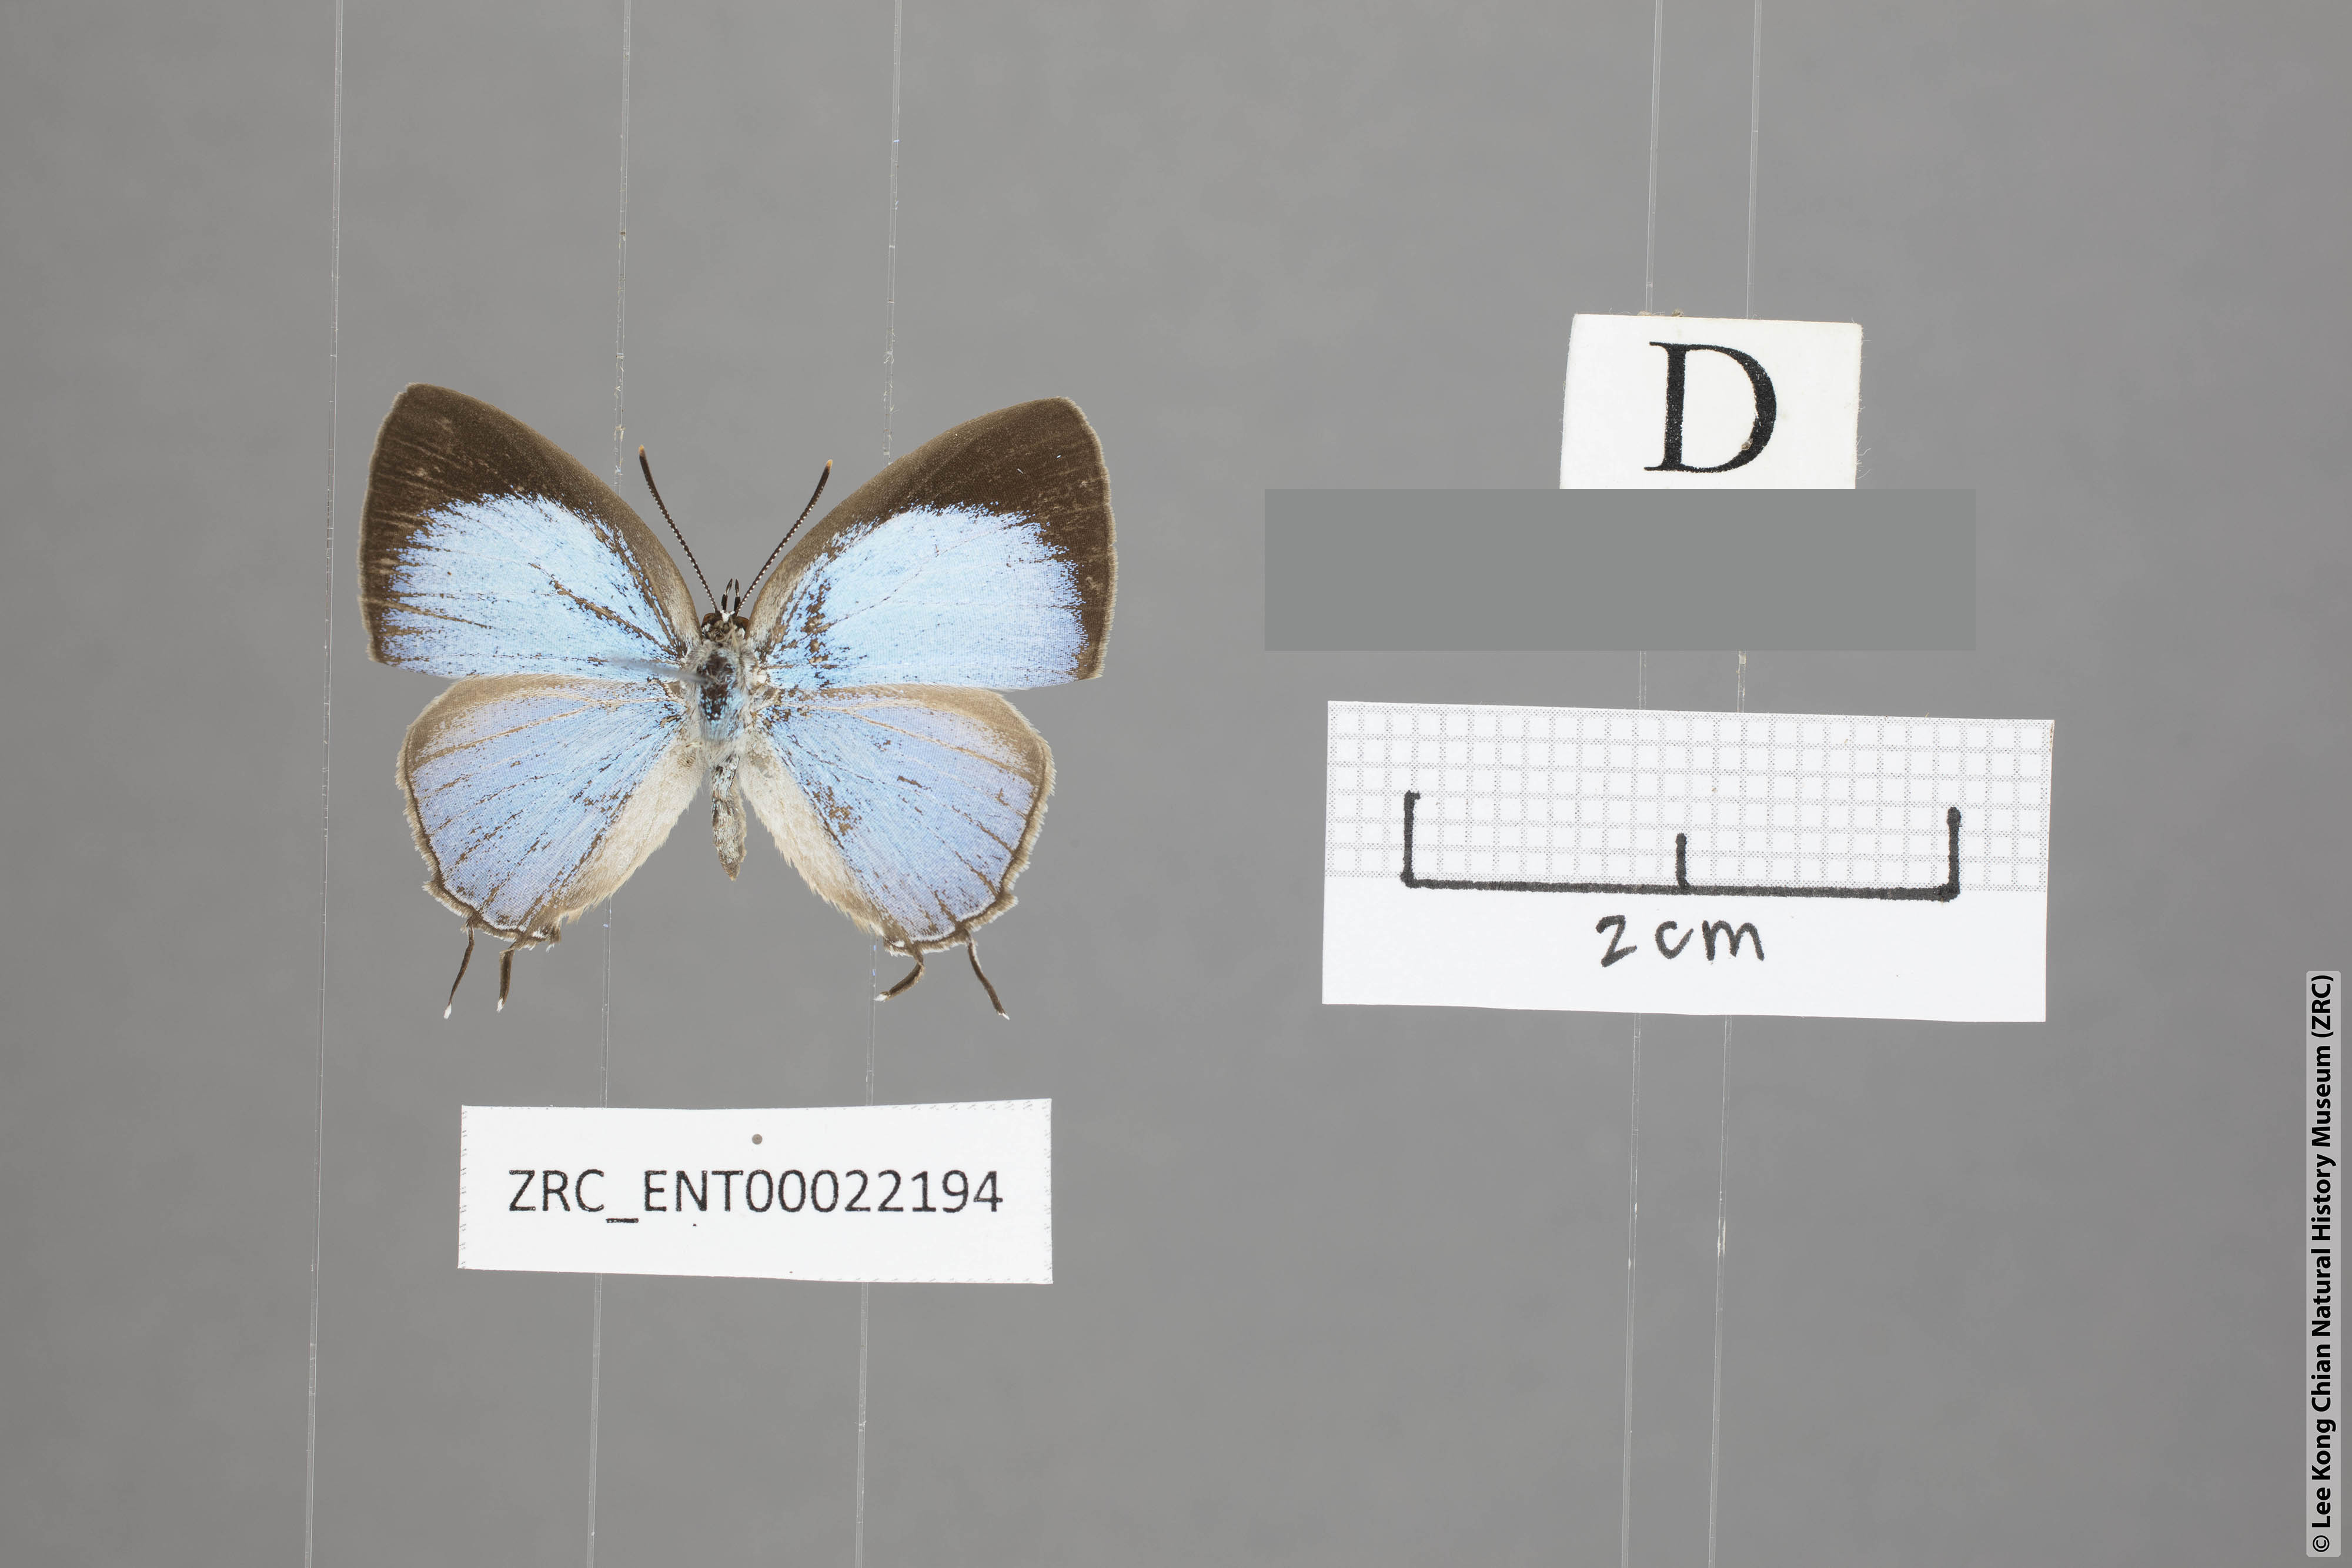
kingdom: Animalia
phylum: Arthropoda
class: Insecta
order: Lepidoptera
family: Lycaenidae
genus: Tajuria
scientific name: Tajuria isaeus
